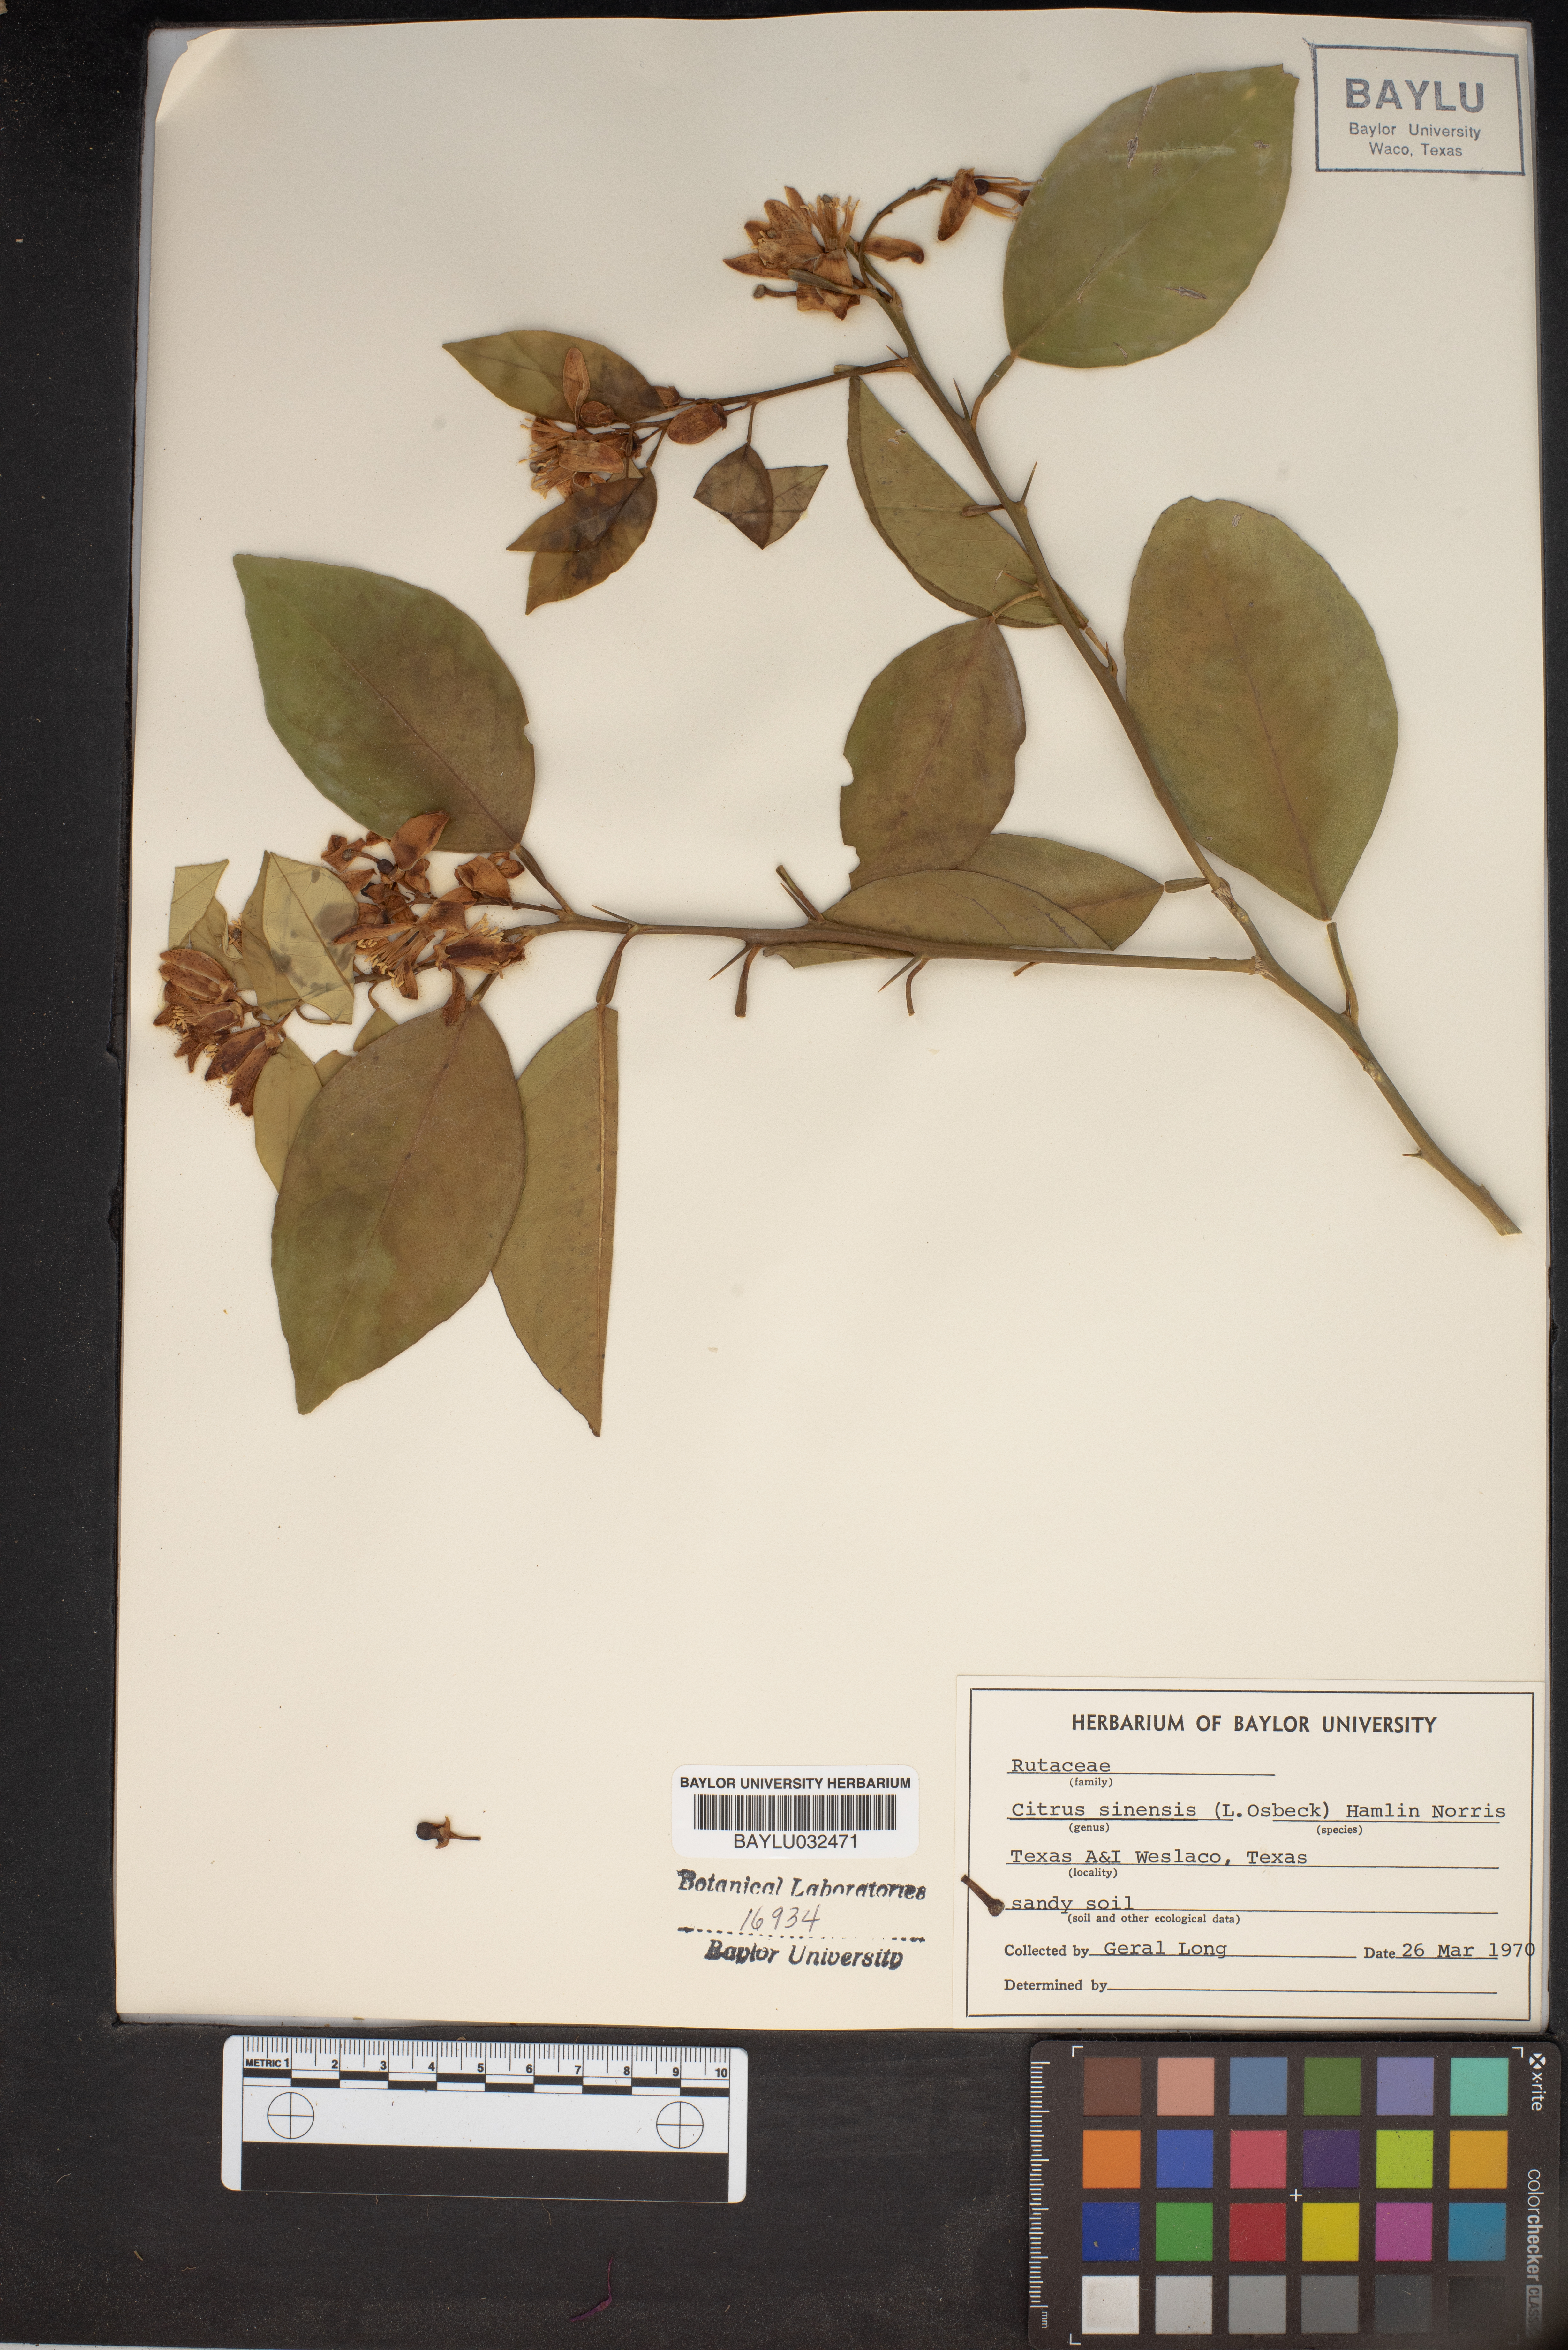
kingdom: Plantae
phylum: Tracheophyta
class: Magnoliopsida
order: Sapindales
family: Rutaceae
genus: Citrus
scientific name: Citrus aurantium
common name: Sour orange
